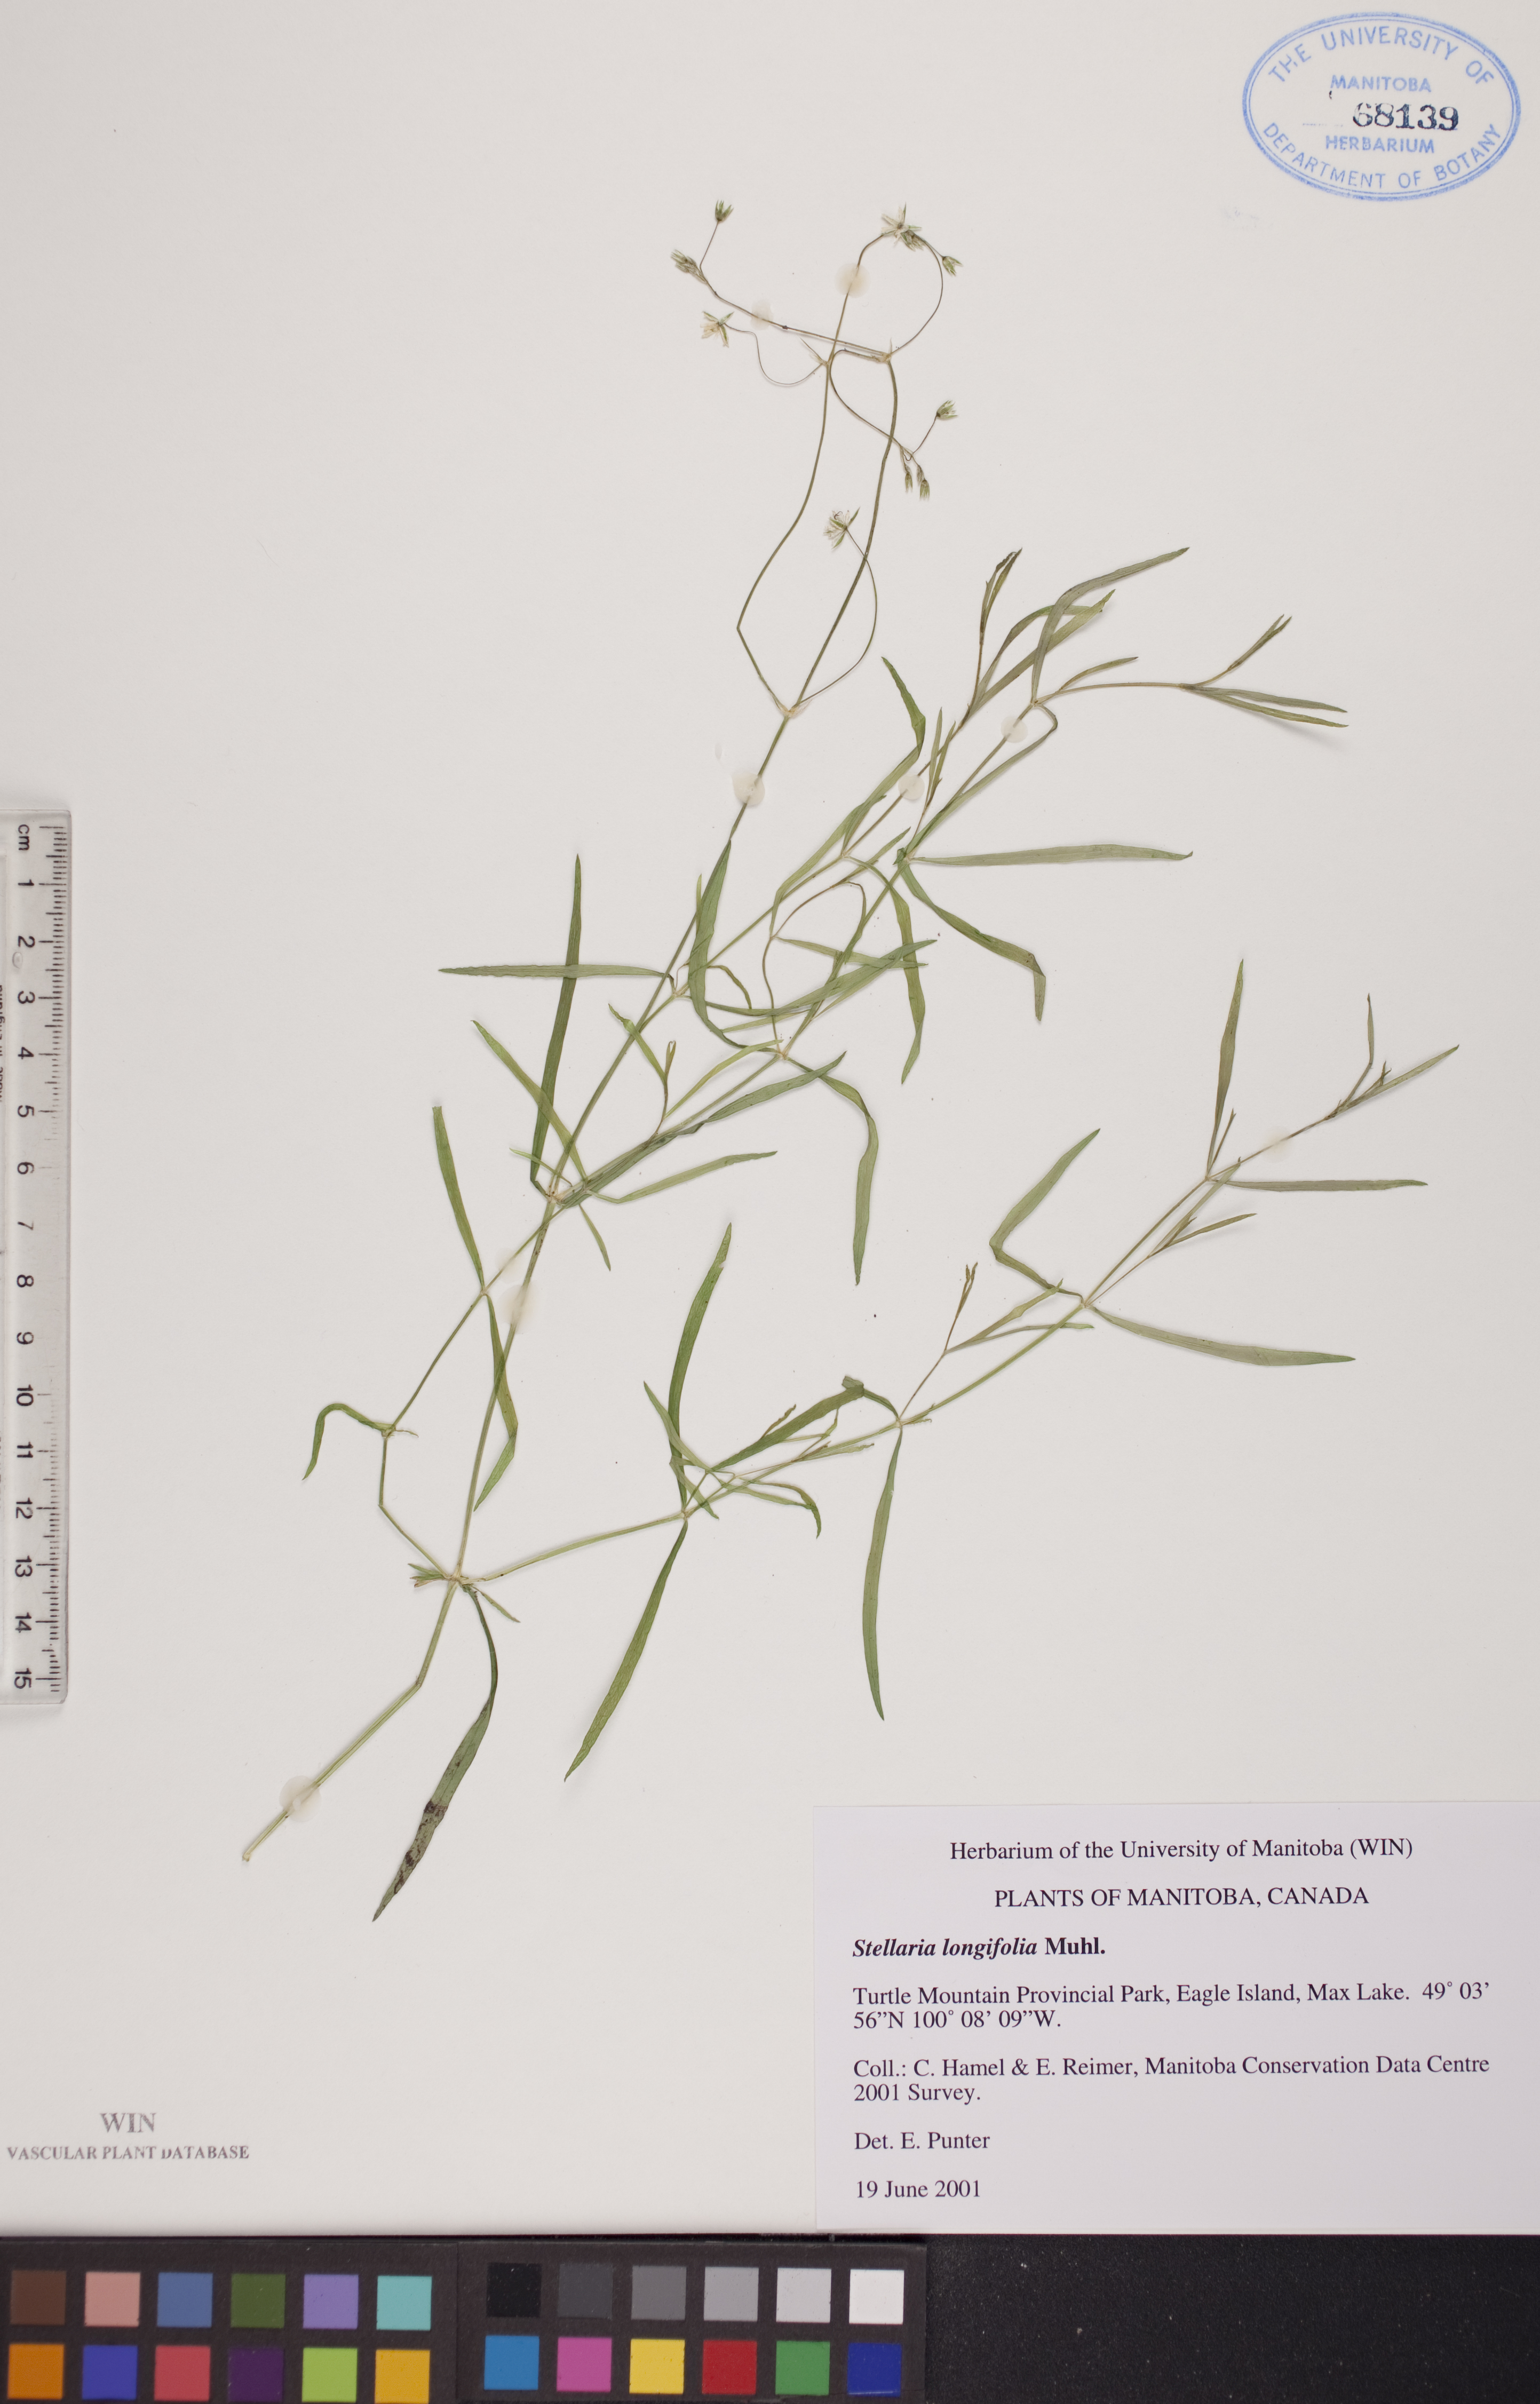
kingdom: Plantae
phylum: Tracheophyta
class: Magnoliopsida
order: Caryophyllales
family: Caryophyllaceae
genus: Stellaria
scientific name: Stellaria longifolia
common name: Long-leaved chickweed
